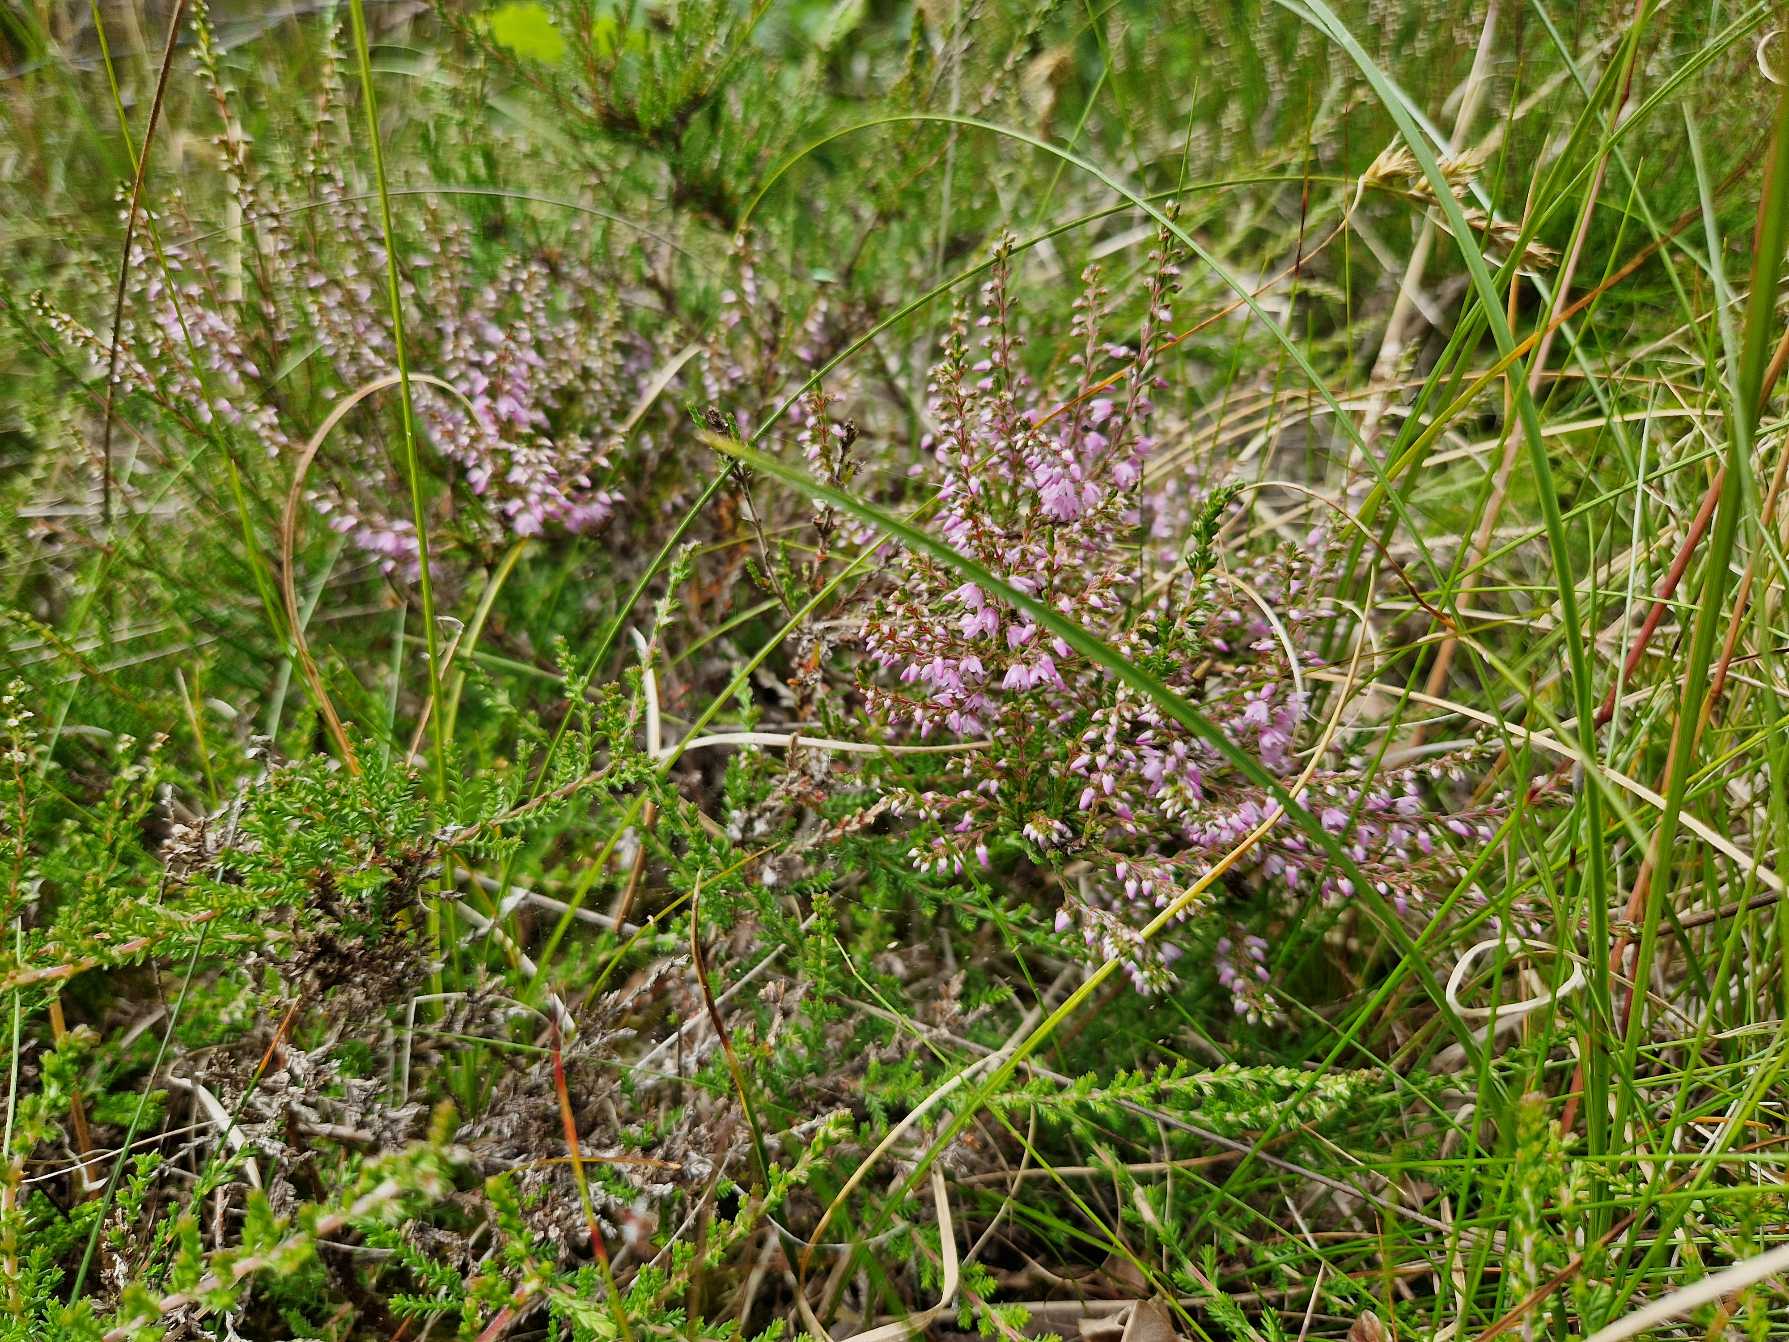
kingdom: Plantae
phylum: Tracheophyta
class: Magnoliopsida
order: Ericales
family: Ericaceae
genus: Calluna
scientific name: Calluna vulgaris
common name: Hedelyng
